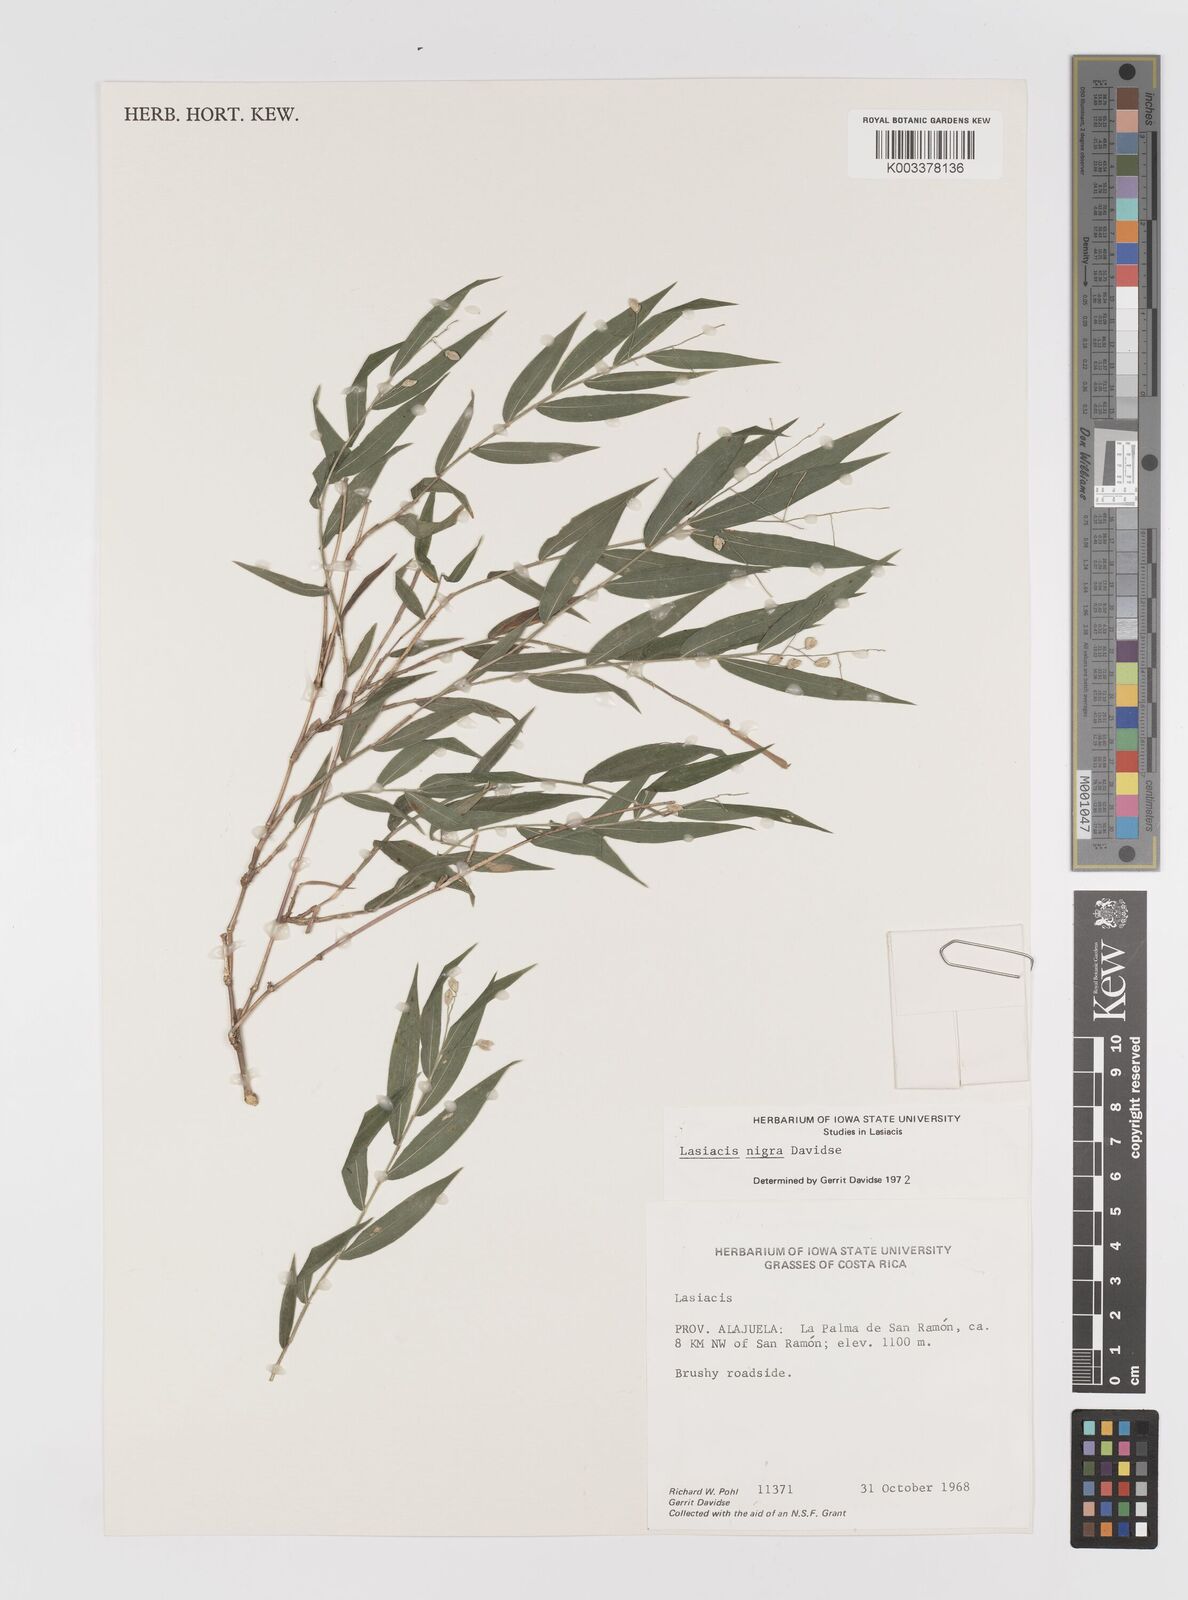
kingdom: Plantae
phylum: Tracheophyta
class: Liliopsida
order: Poales
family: Poaceae
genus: Lasiacis
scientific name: Lasiacis nigra
